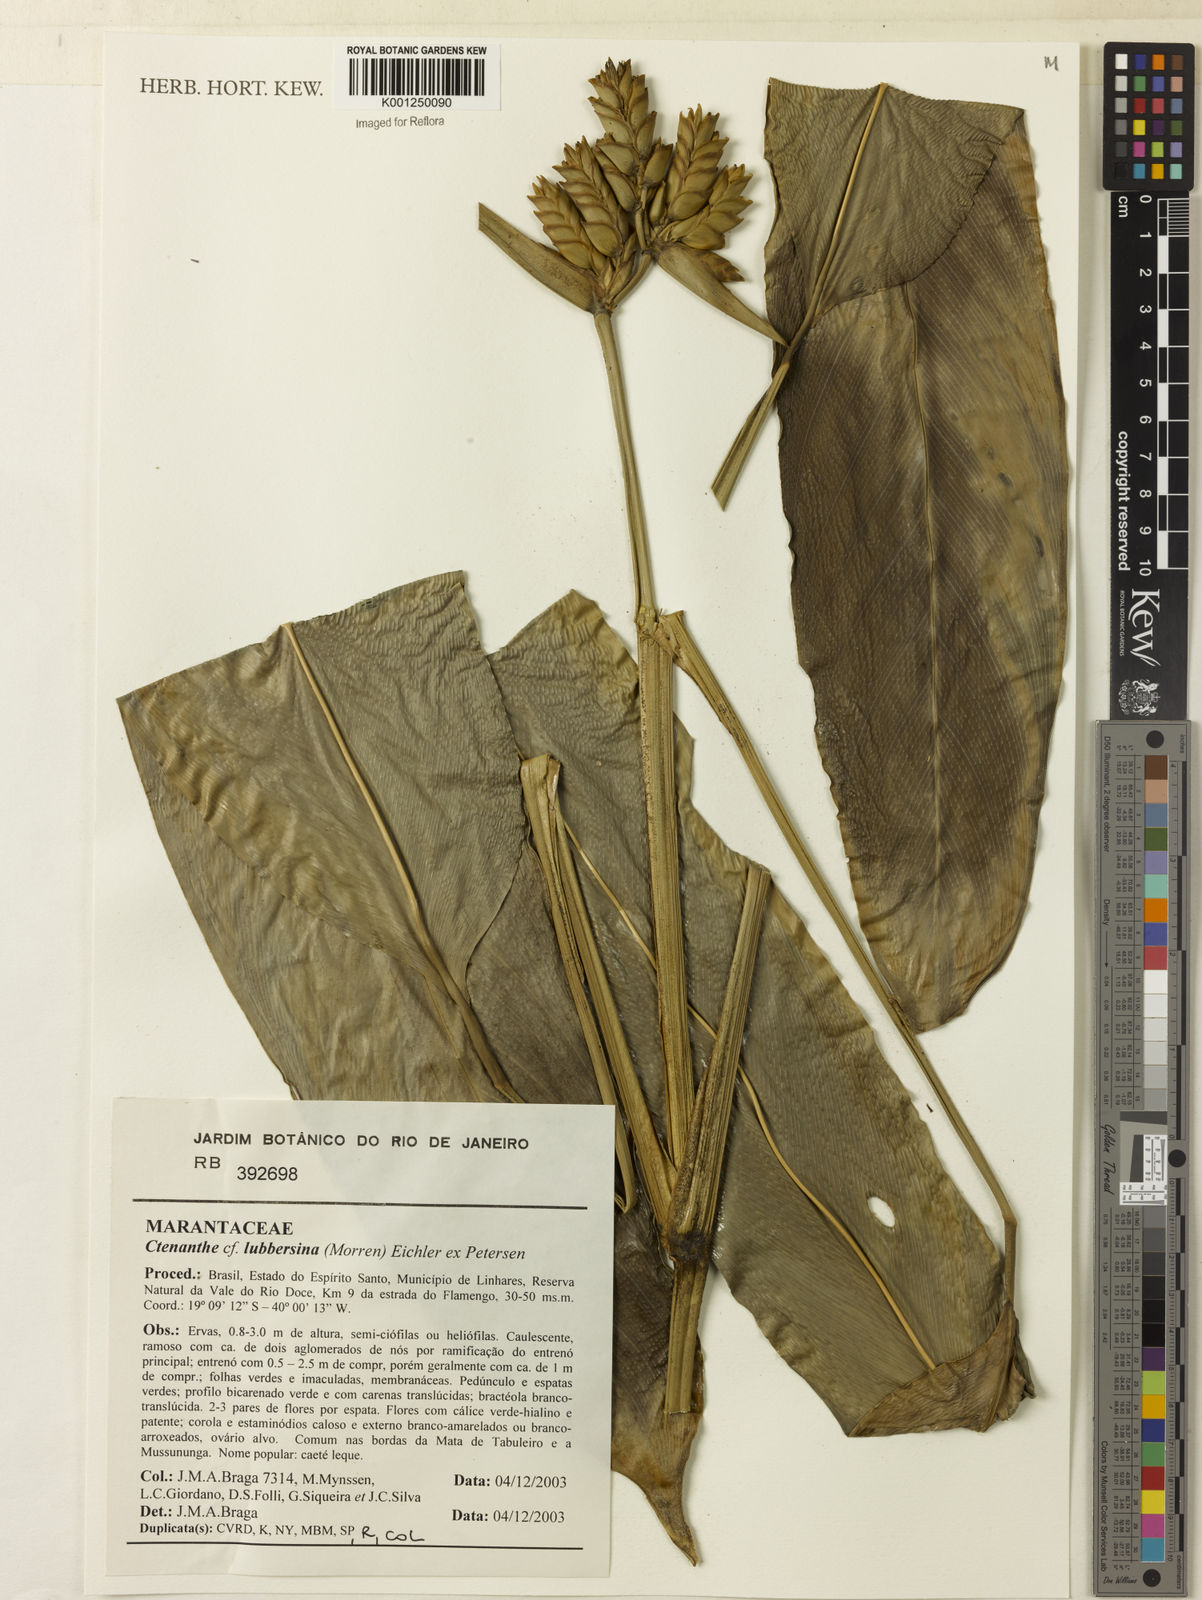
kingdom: Plantae
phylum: Tracheophyta
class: Liliopsida
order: Zingiberales
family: Marantaceae
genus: Ctenanthe
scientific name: Ctenanthe lubbersiana
